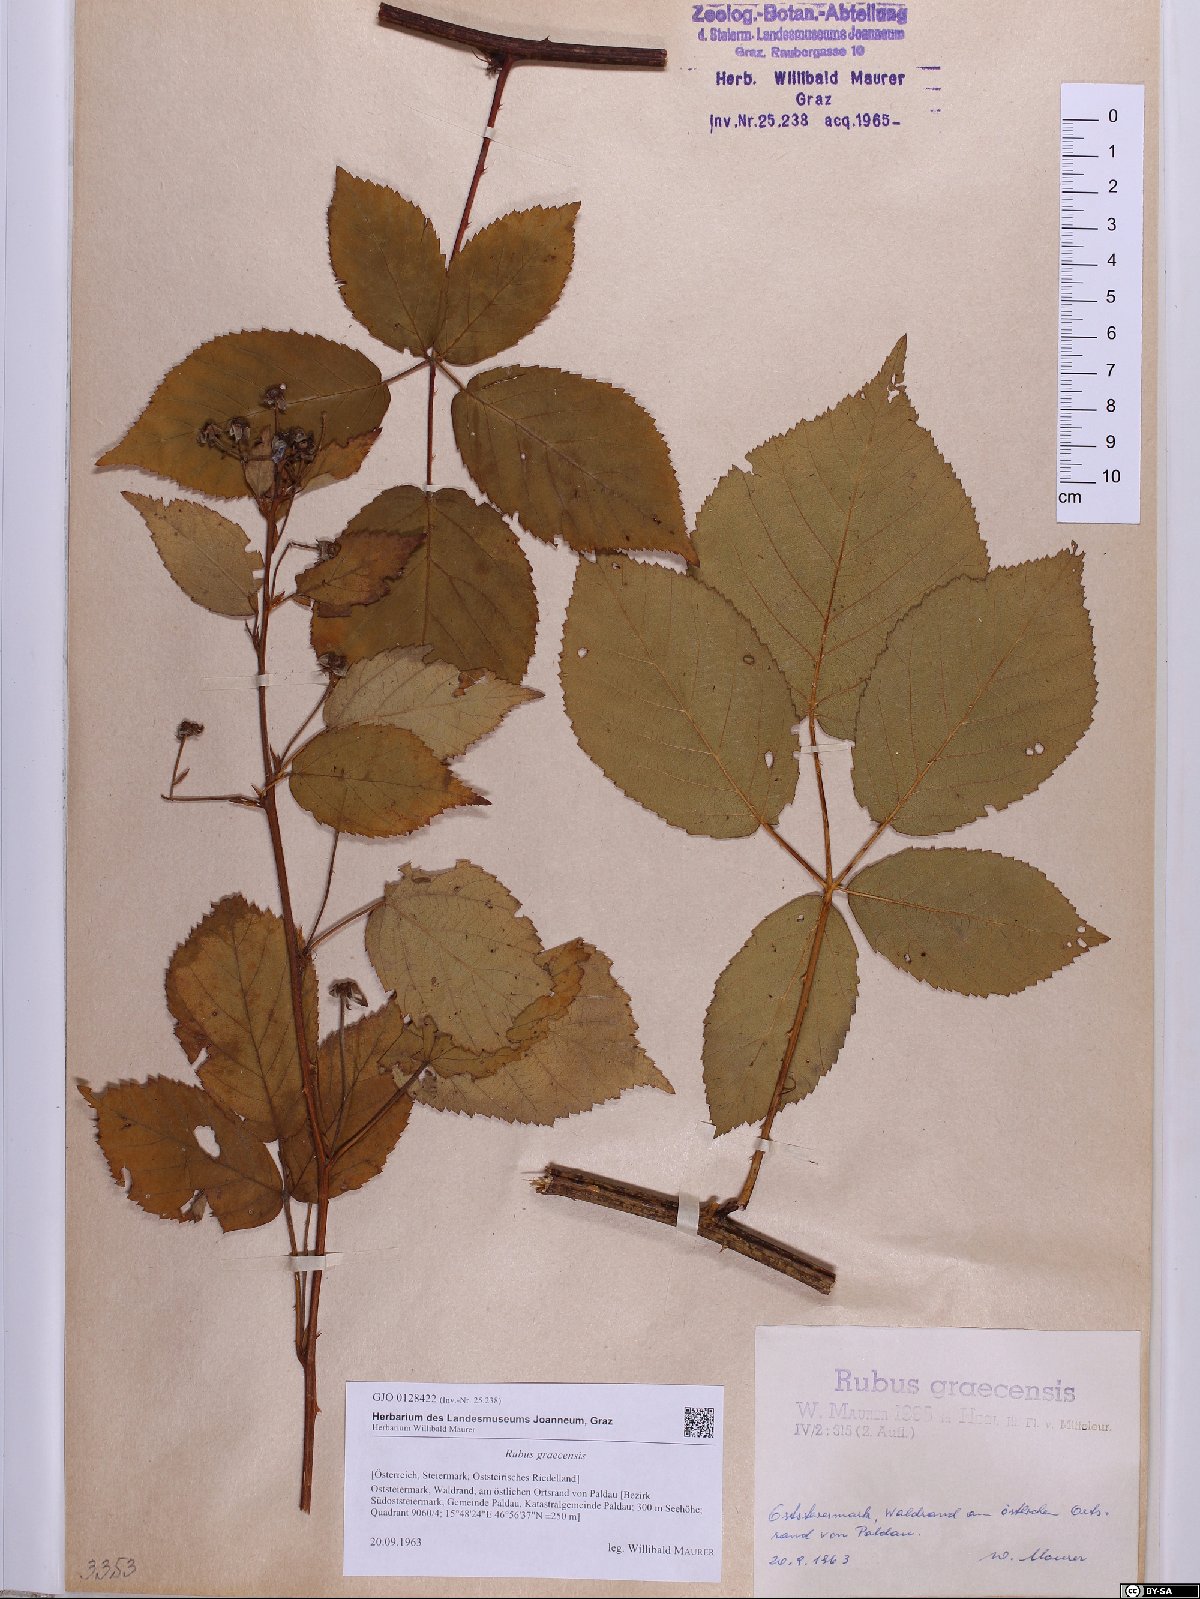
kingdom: Plantae
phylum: Tracheophyta
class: Magnoliopsida
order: Rosales
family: Rosaceae
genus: Rubus
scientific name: Rubus graecensis
